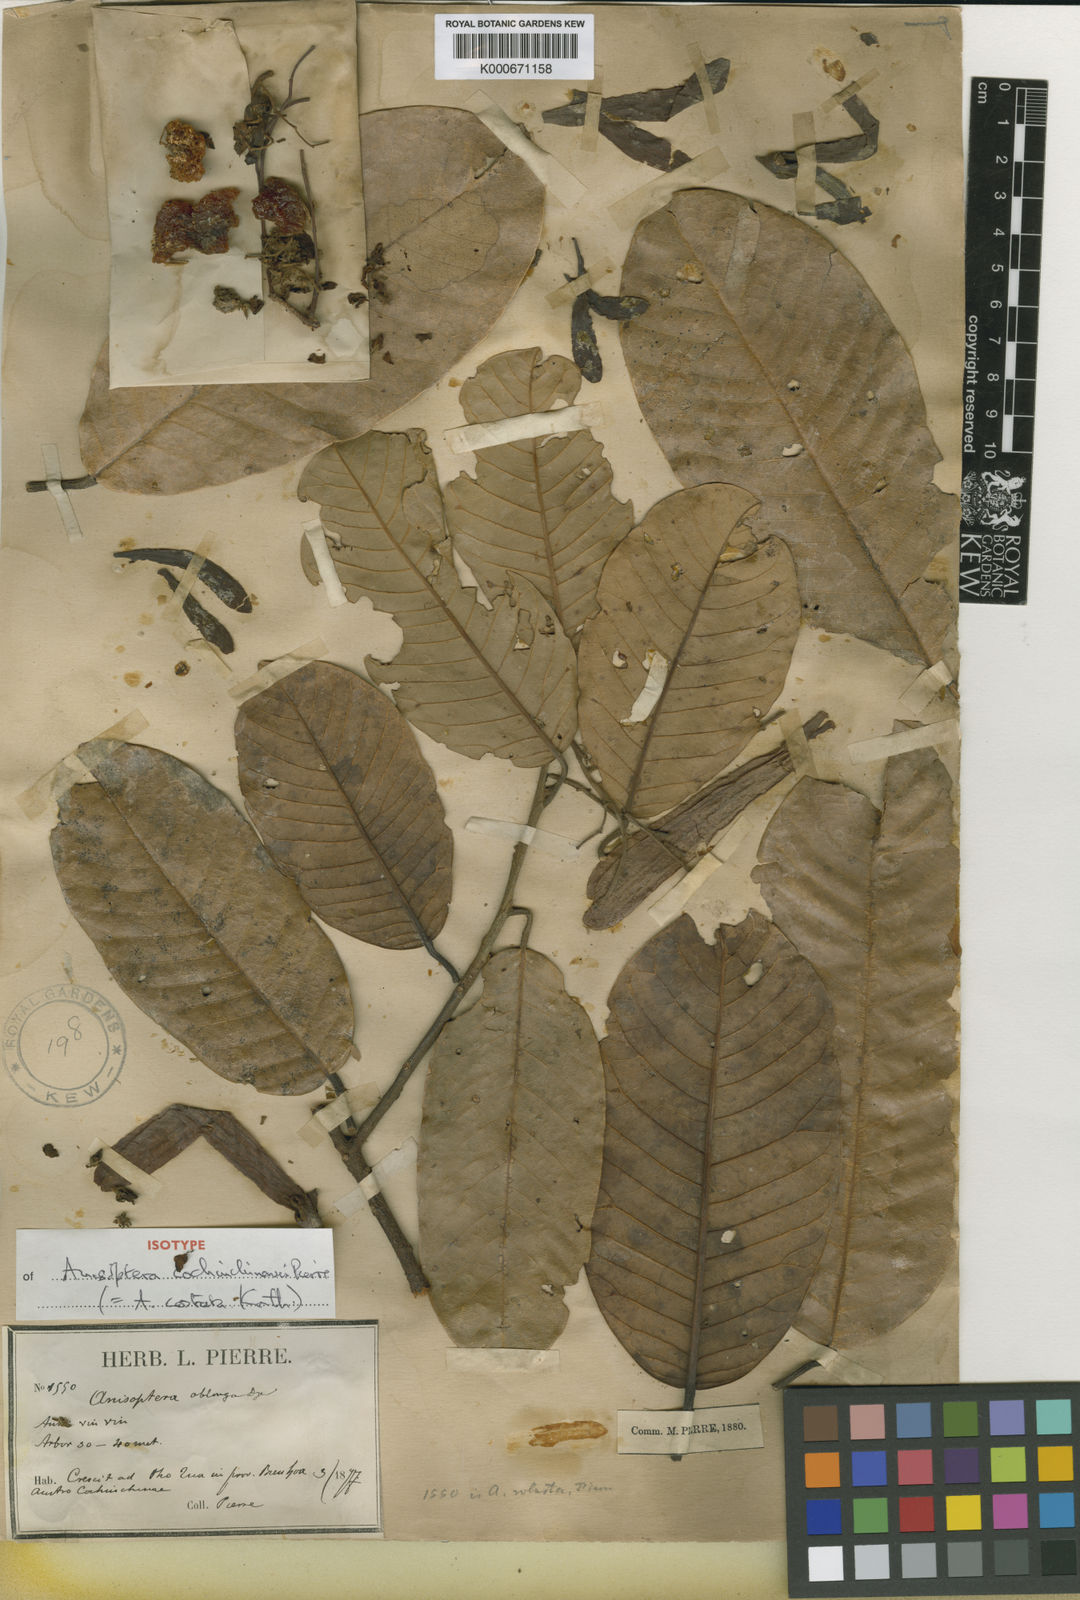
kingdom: Plantae
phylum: Tracheophyta
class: Magnoliopsida
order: Malvales
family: Dipterocarpaceae
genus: Anisoptera
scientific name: Anisoptera costata
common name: Mersawa
